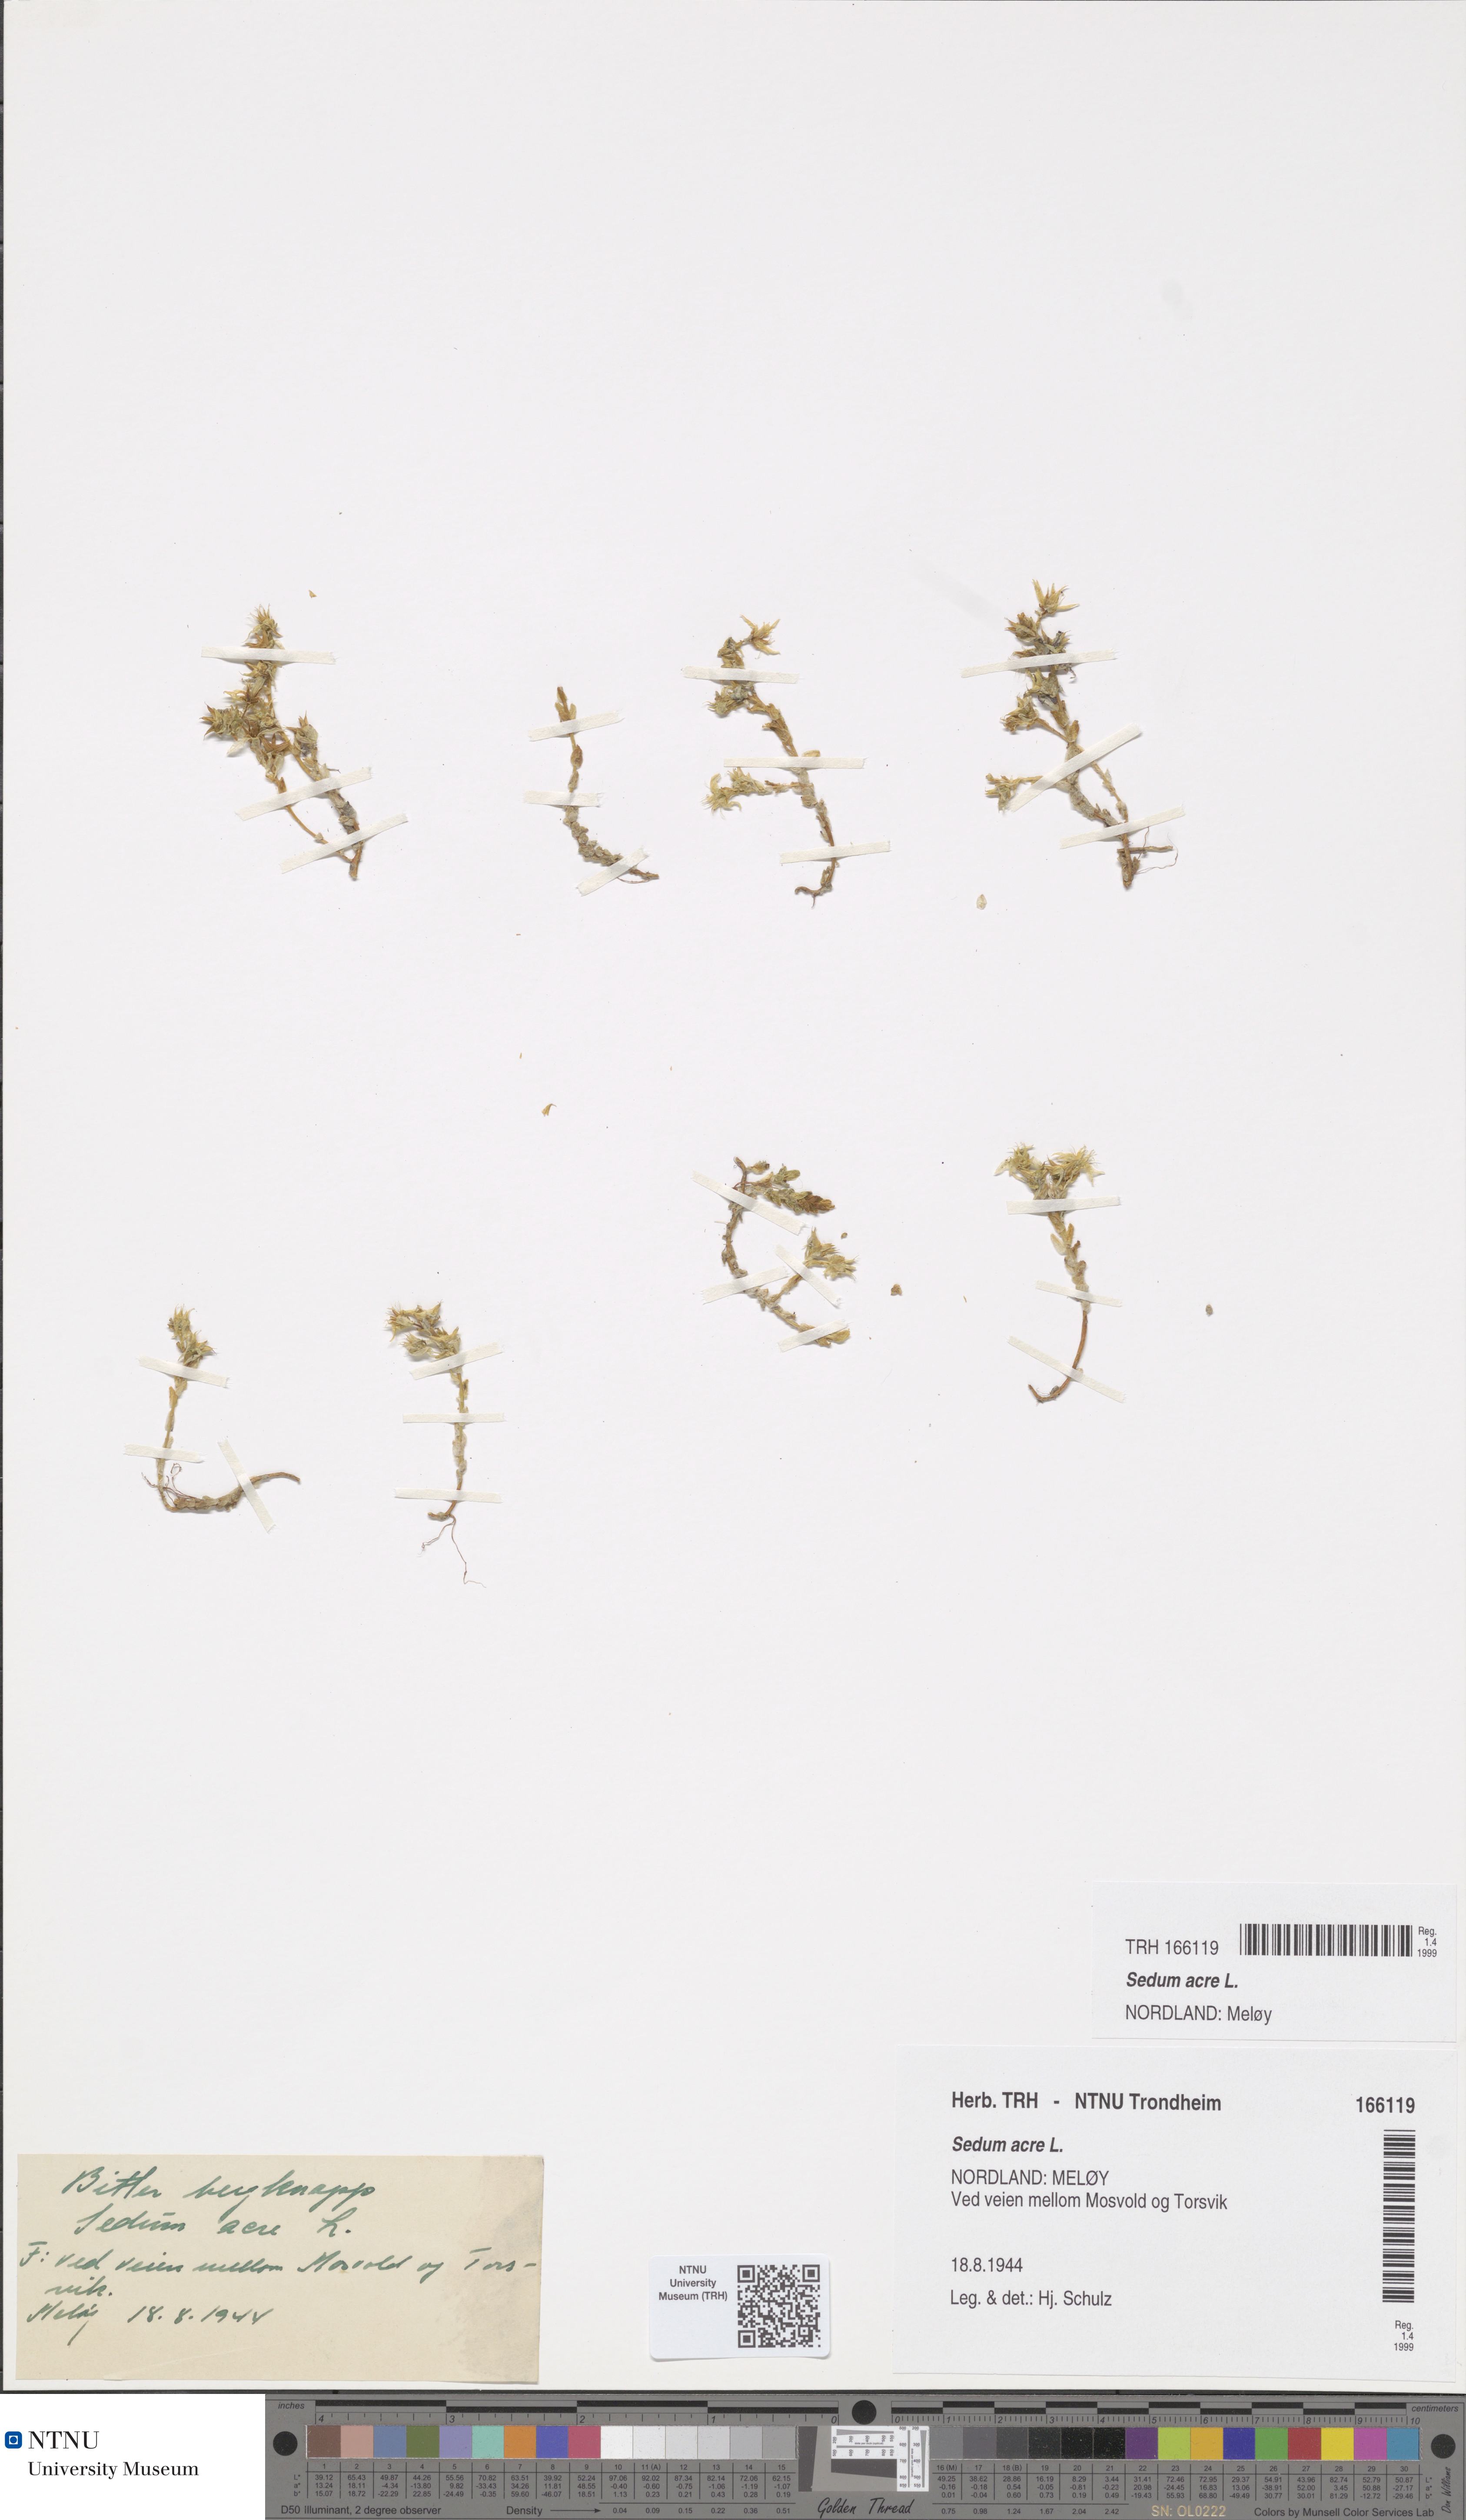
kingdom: Plantae
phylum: Tracheophyta
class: Magnoliopsida
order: Saxifragales
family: Crassulaceae
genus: Sedum
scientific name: Sedum acre
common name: Biting stonecrop
